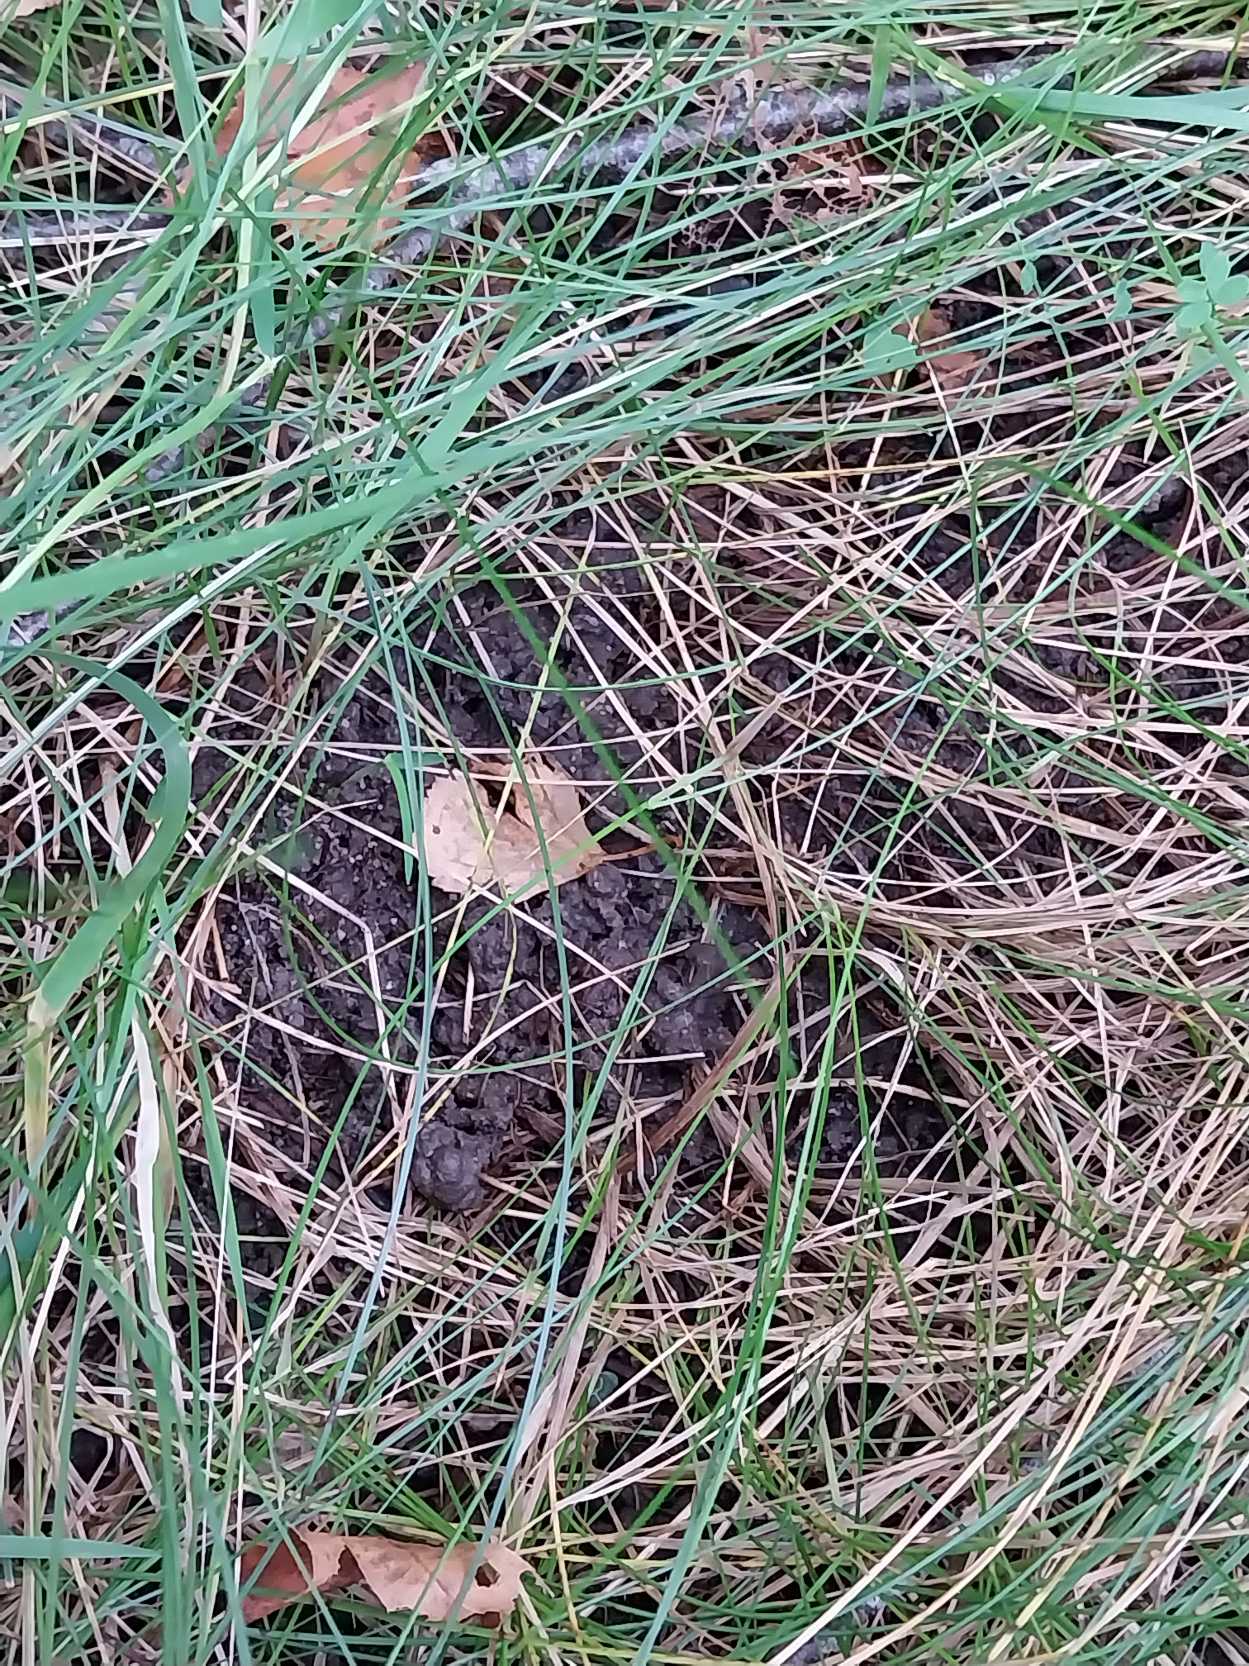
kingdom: Plantae
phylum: Tracheophyta
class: Liliopsida
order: Poales
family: Poaceae
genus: Festuca
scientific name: Festuca rubra
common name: Rød svingel
